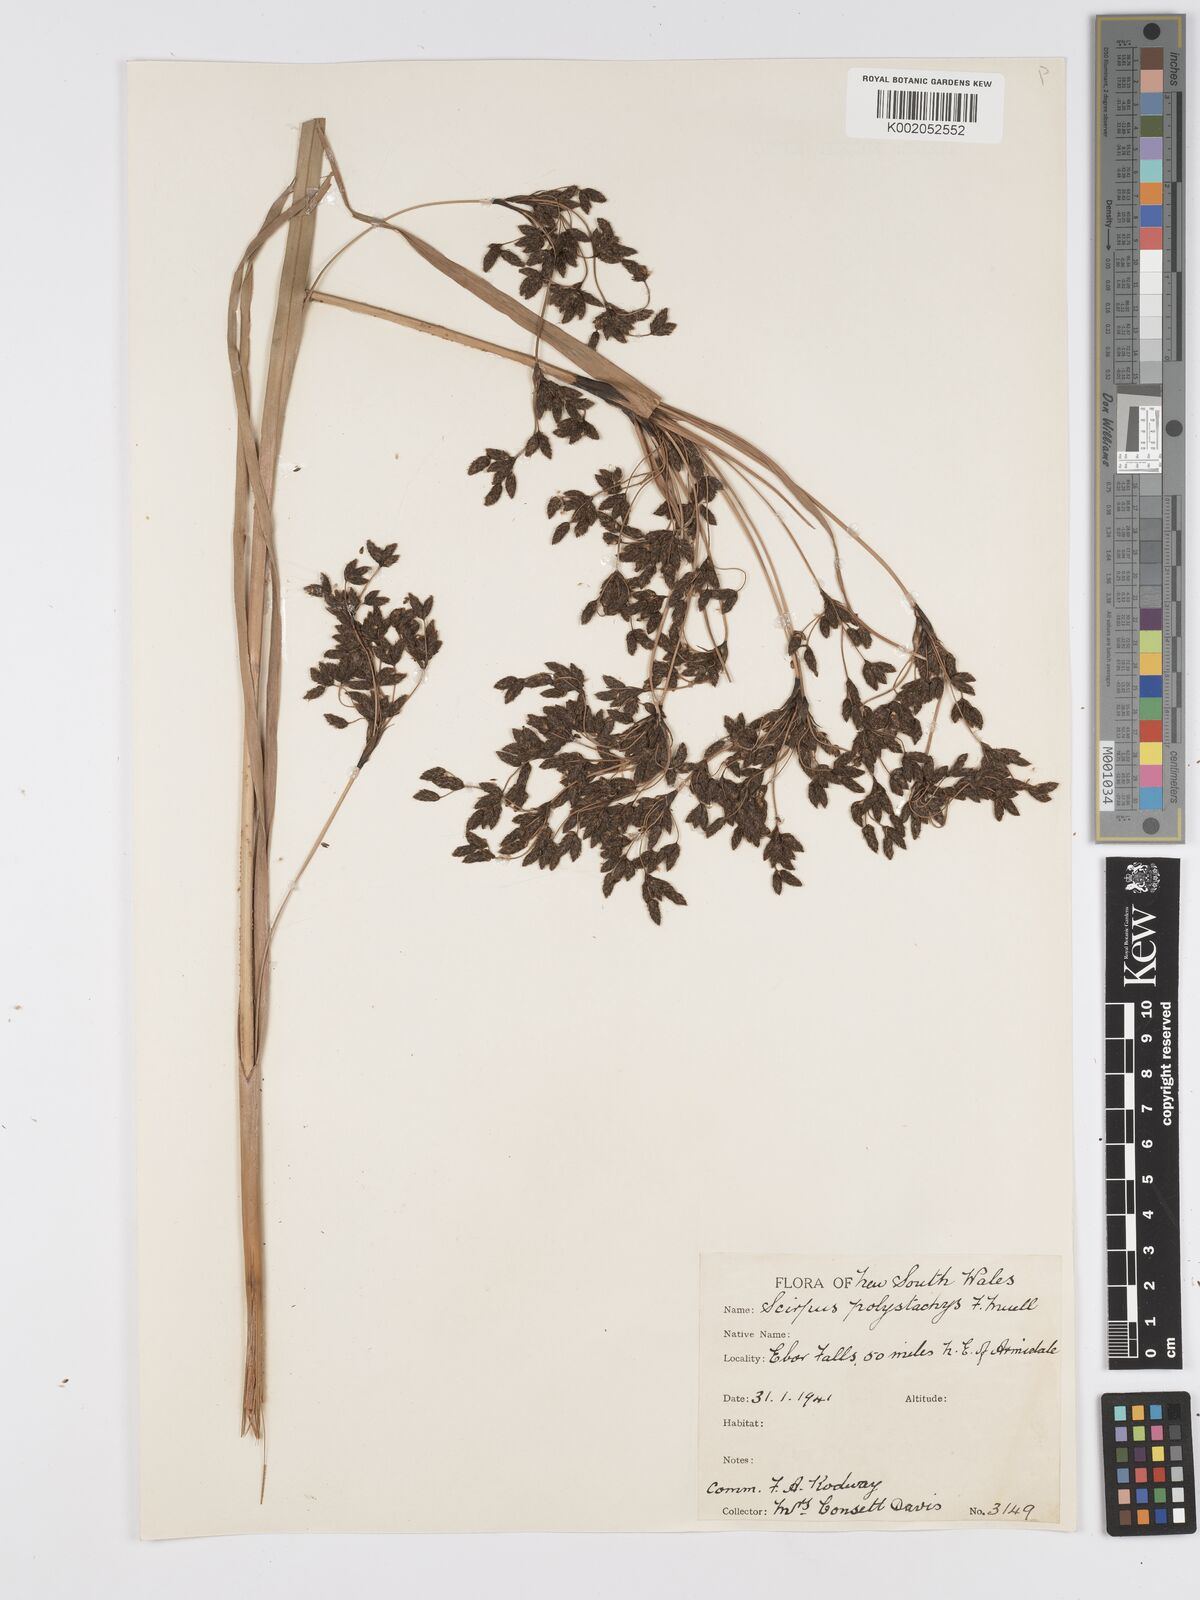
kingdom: Plantae
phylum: Tracheophyta
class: Liliopsida
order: Poales
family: Cyperaceae
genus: Scirpus
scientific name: Scirpus polystachyus
